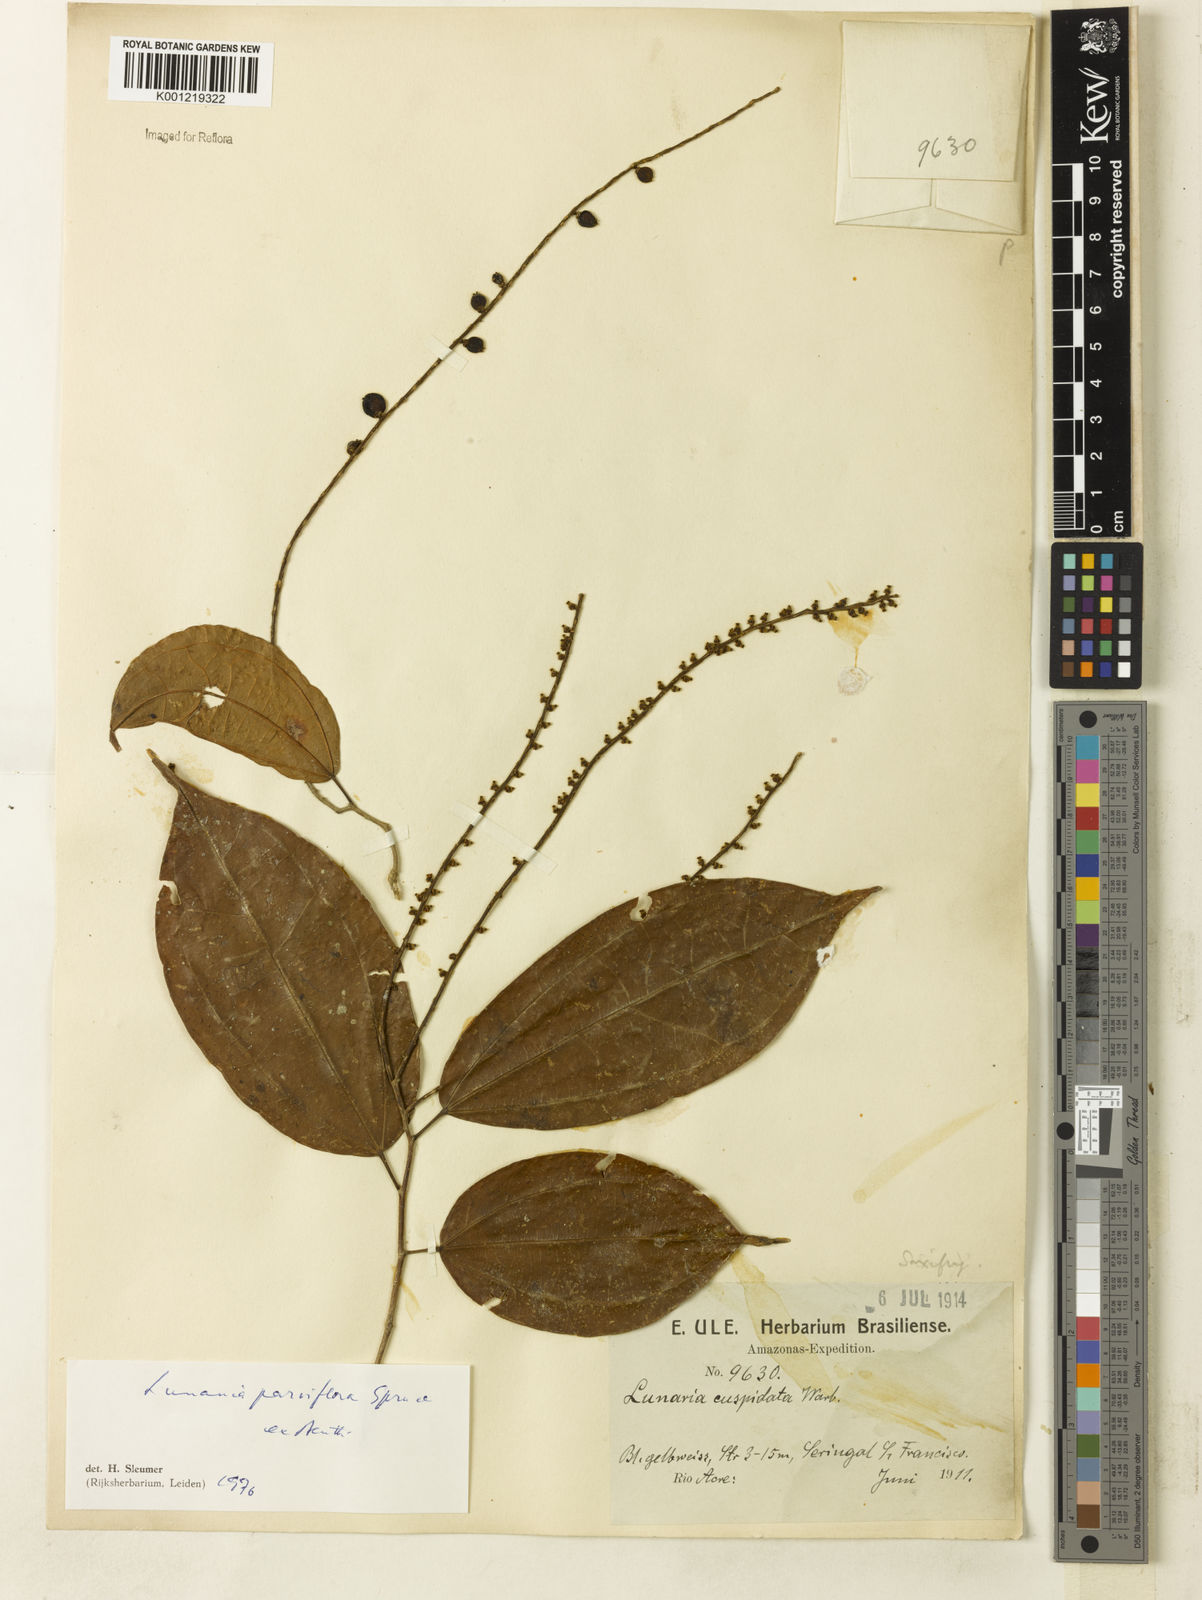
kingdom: Plantae
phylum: Tracheophyta
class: Magnoliopsida
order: Malpighiales
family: Salicaceae
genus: Lunania
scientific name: Lunania parviflora
